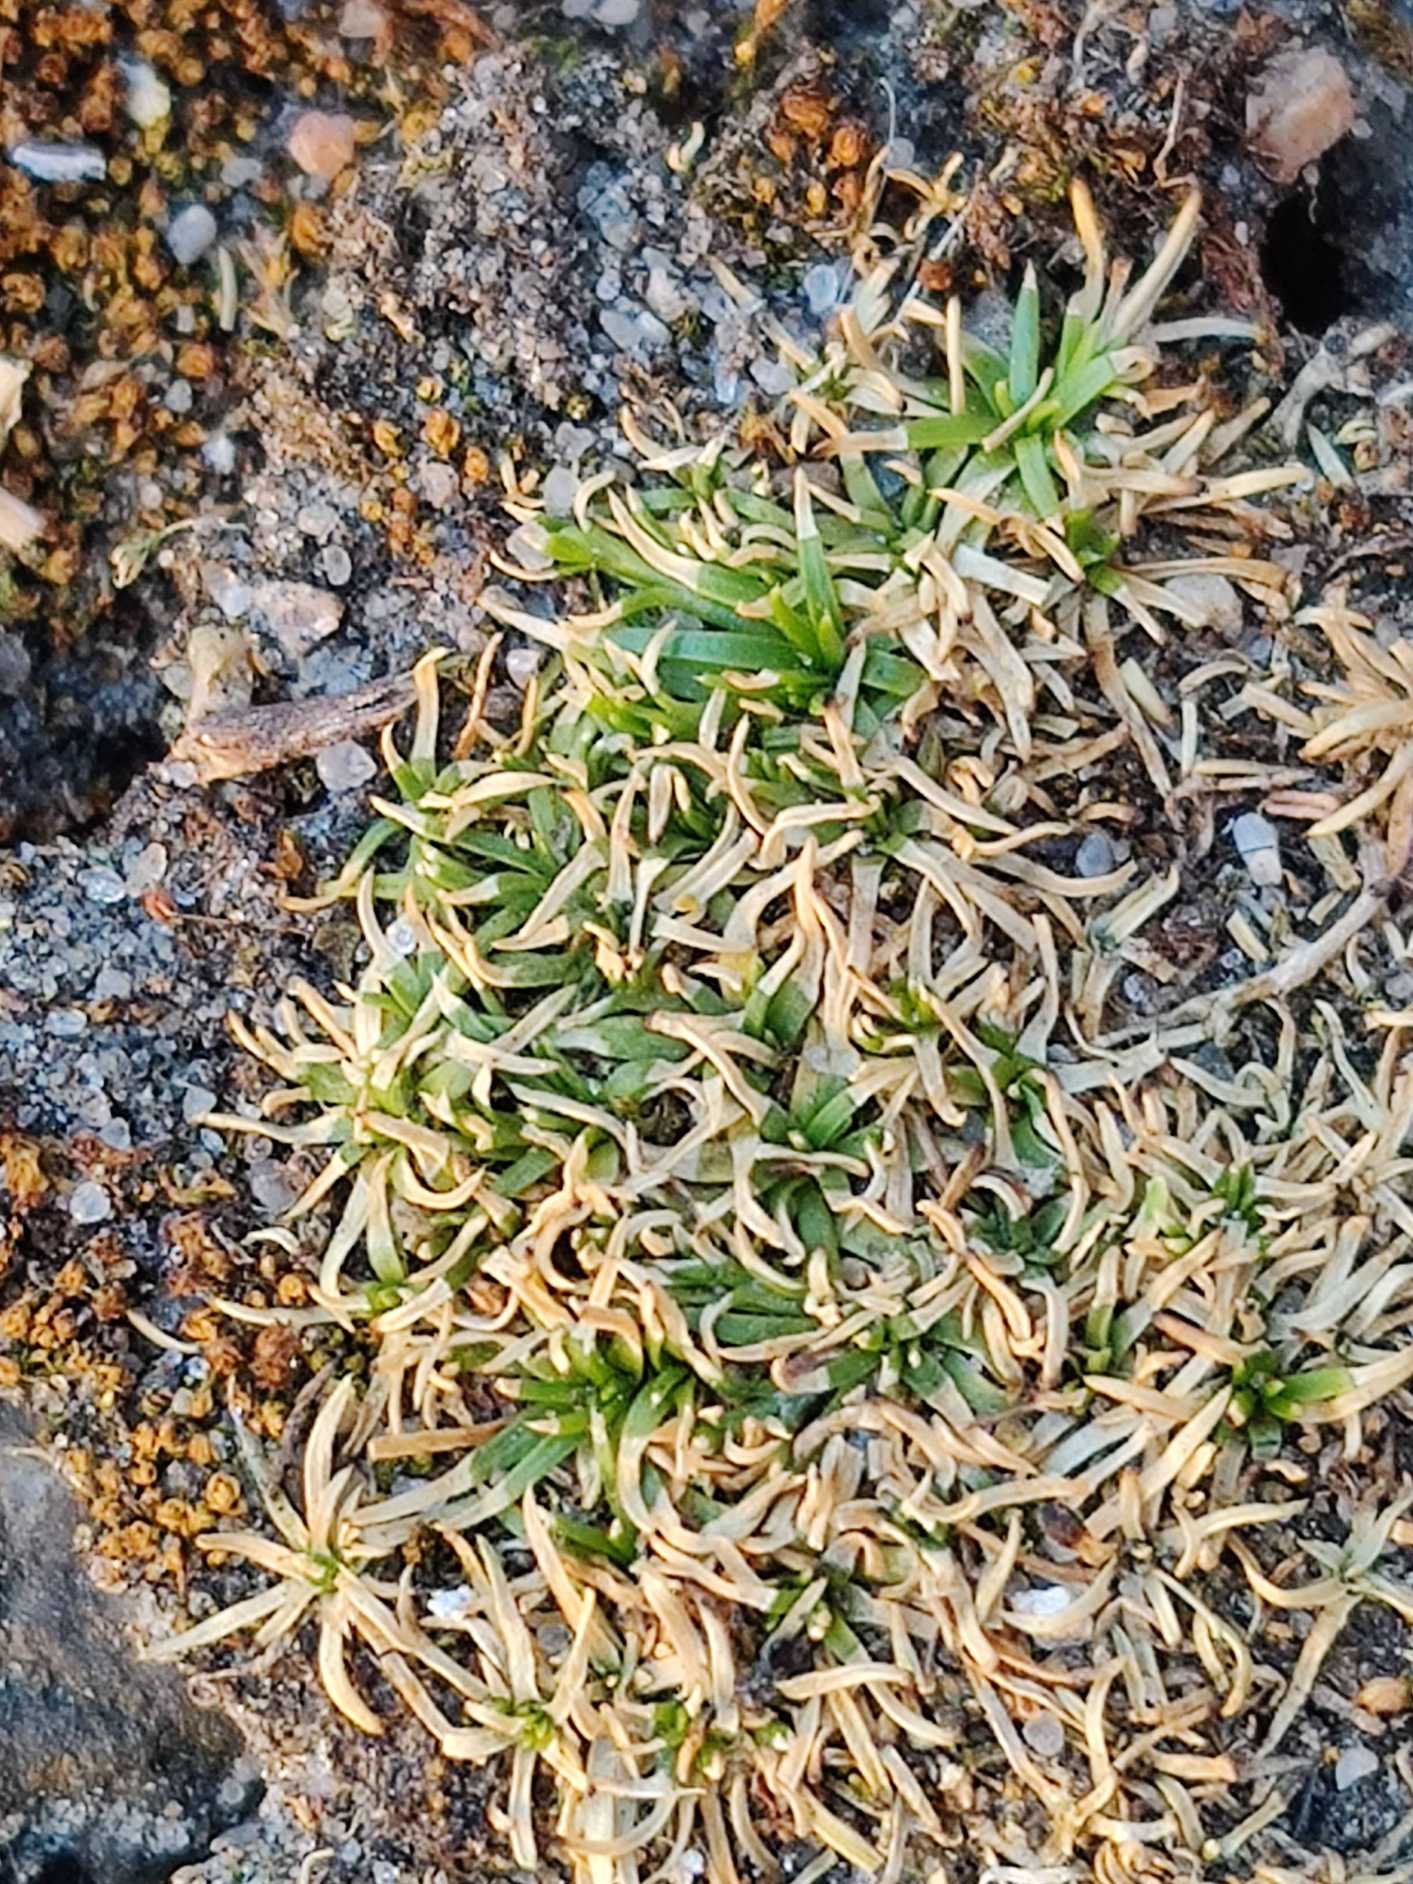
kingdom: Plantae
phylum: Tracheophyta
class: Magnoliopsida
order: Caryophyllales
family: Caryophyllaceae
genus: Sagina
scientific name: Sagina procumbens
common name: Almindelig firling
